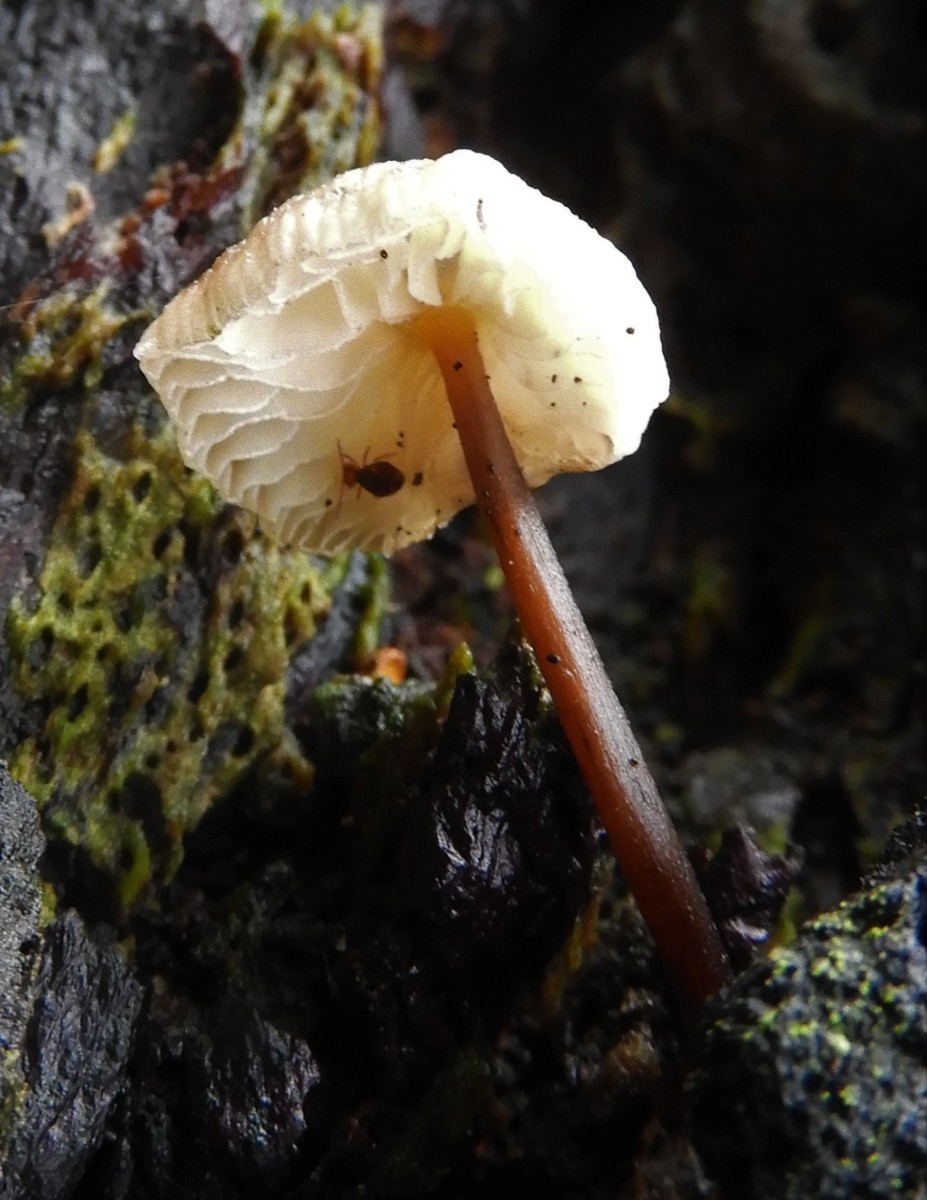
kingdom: Fungi
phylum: Basidiomycota
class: Agaricomycetes
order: Agaricales
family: Porotheleaceae
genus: Phloeomana
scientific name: Phloeomana speirea
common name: kvist-huesvamp
